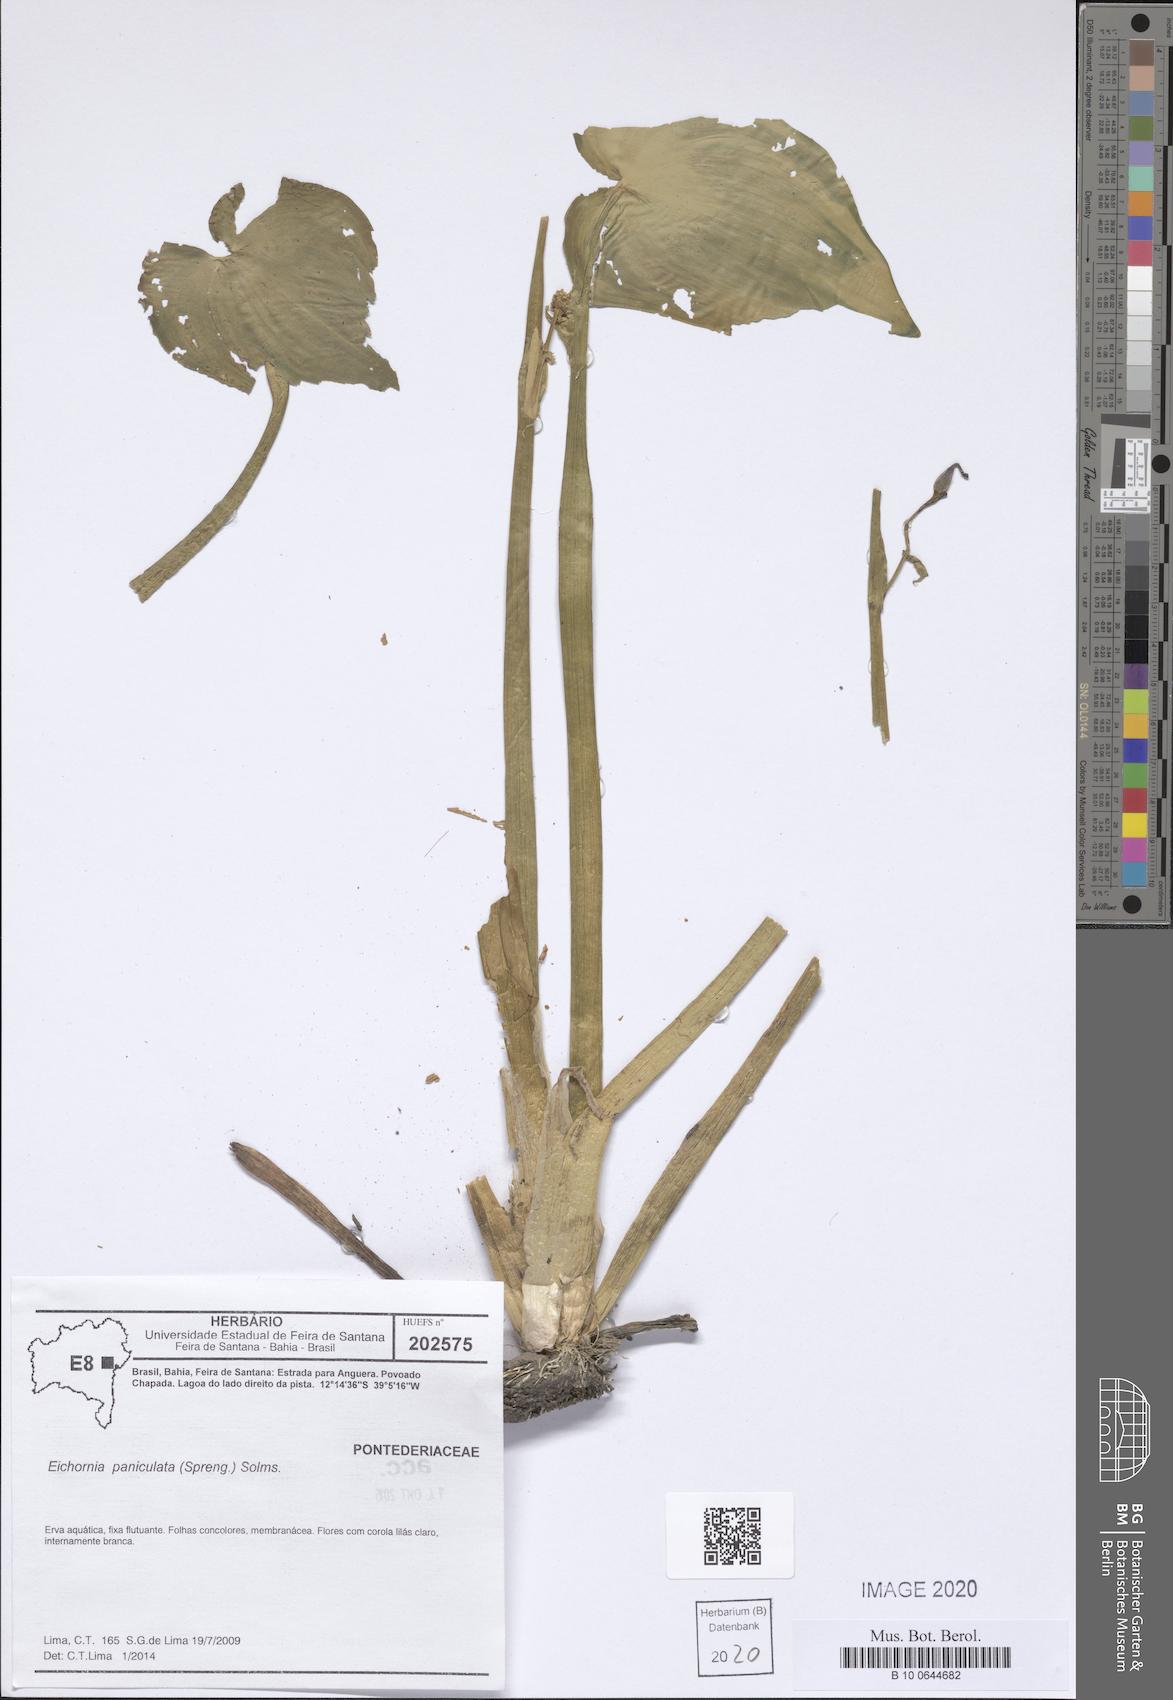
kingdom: Plantae
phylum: Tracheophyta
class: Liliopsida
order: Commelinales
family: Pontederiaceae
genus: Pontederia
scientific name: Pontederia paniculata
